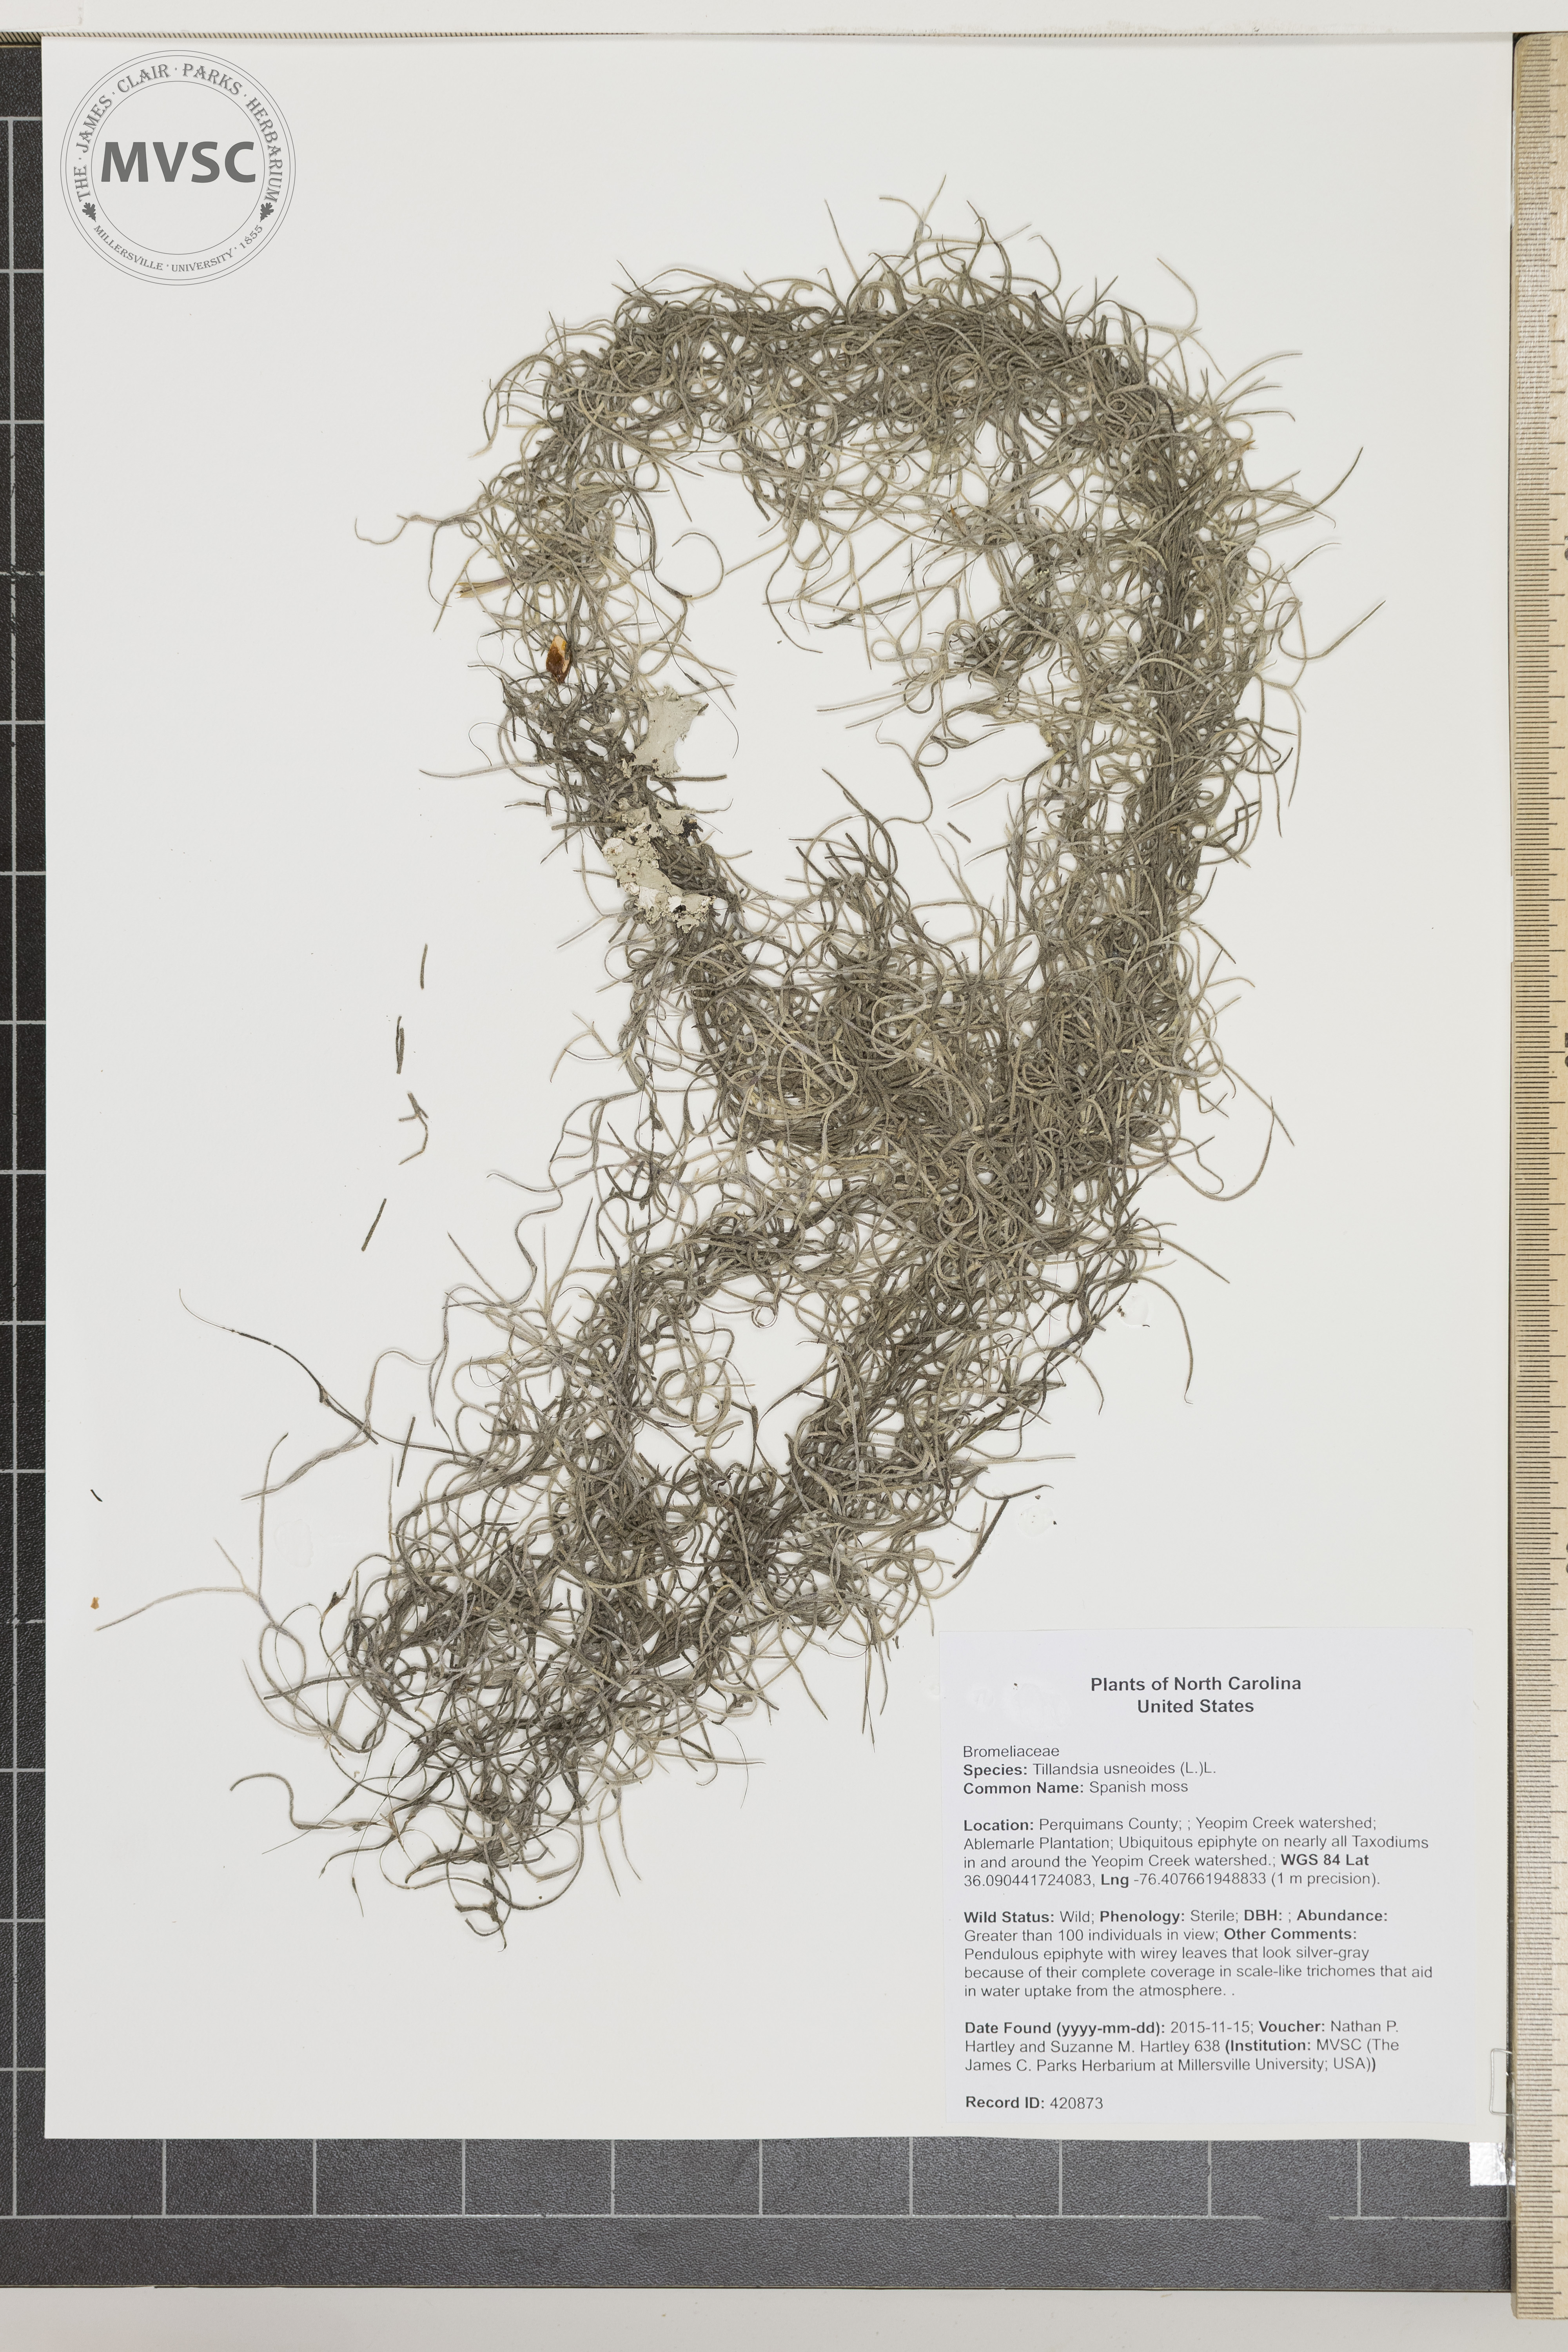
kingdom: Plantae
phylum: Tracheophyta
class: Liliopsida
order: Poales
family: Bromeliaceae
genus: Tillandsia
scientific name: Tillandsia usneoides
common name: Spanish moss
